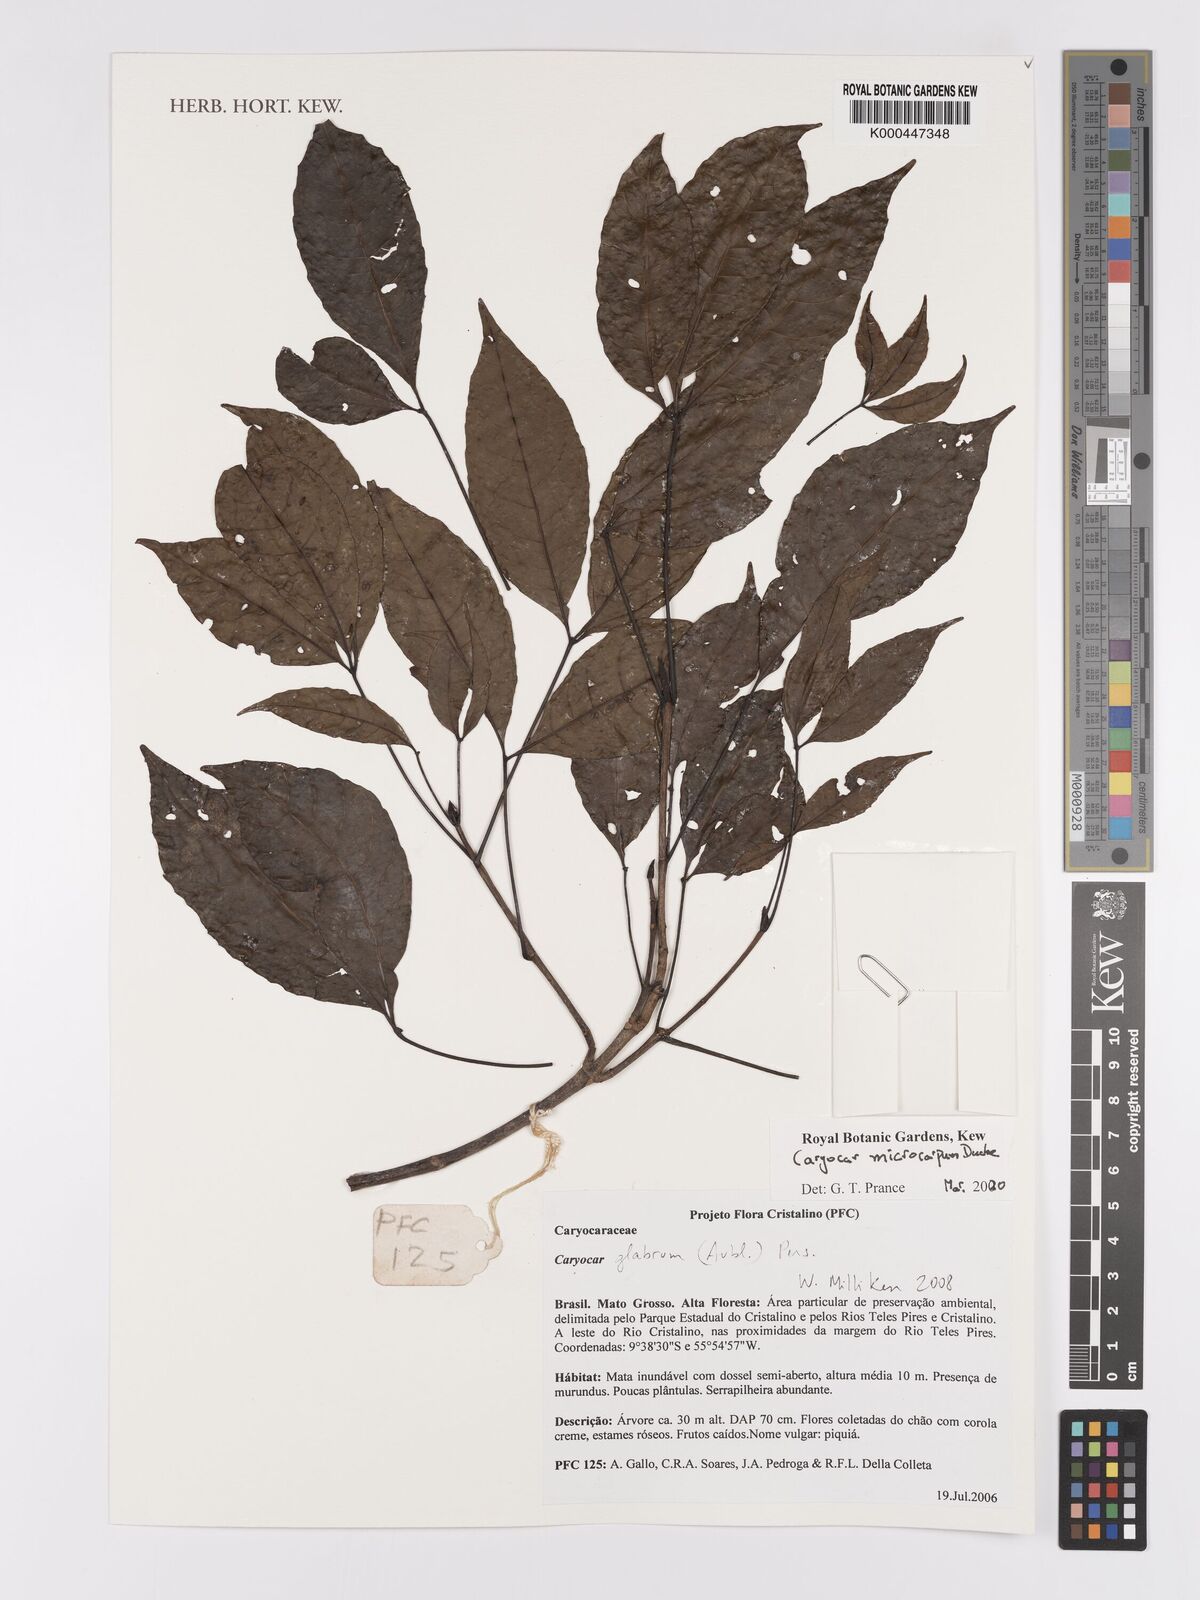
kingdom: Plantae
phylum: Tracheophyta
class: Magnoliopsida
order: Malpighiales
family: Caryocaraceae
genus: Caryocar
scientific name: Caryocar glabrum
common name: Bat's souari
